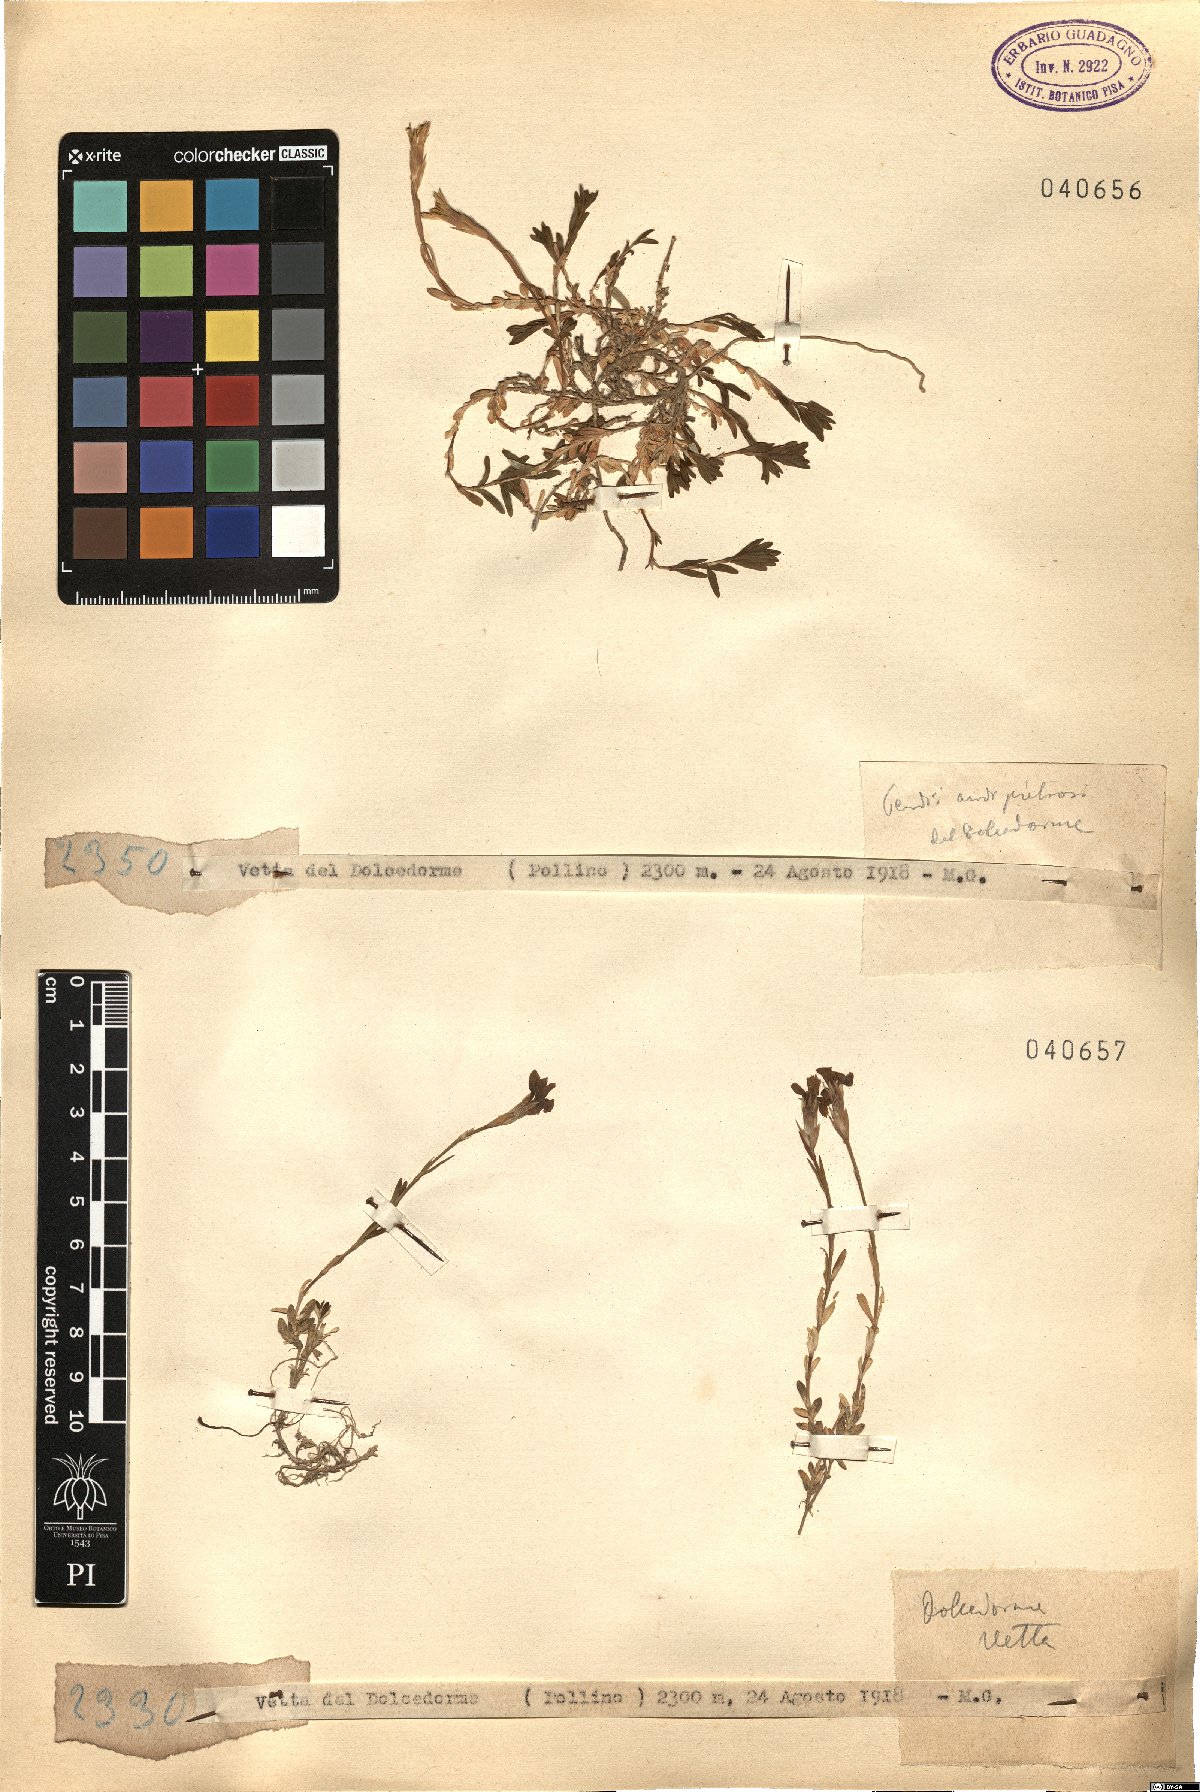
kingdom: Plantae
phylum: Tracheophyta
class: Magnoliopsida
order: Caryophyllales
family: Caryophyllaceae
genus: Dianthus
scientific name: Dianthus
